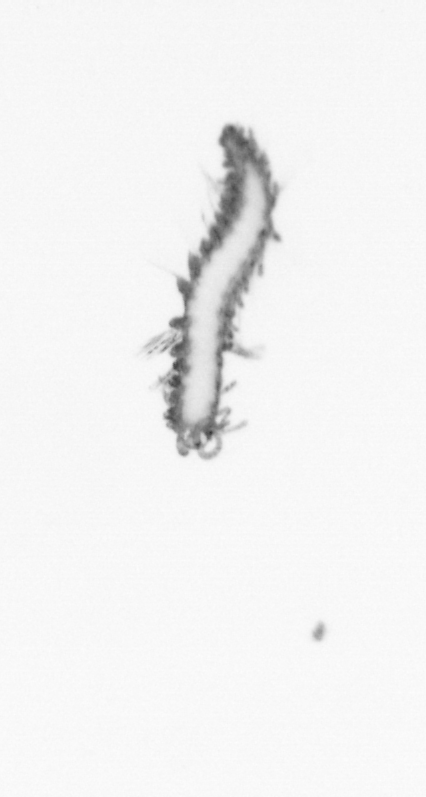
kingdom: Animalia
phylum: Annelida
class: Polychaeta
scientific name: Polychaeta
